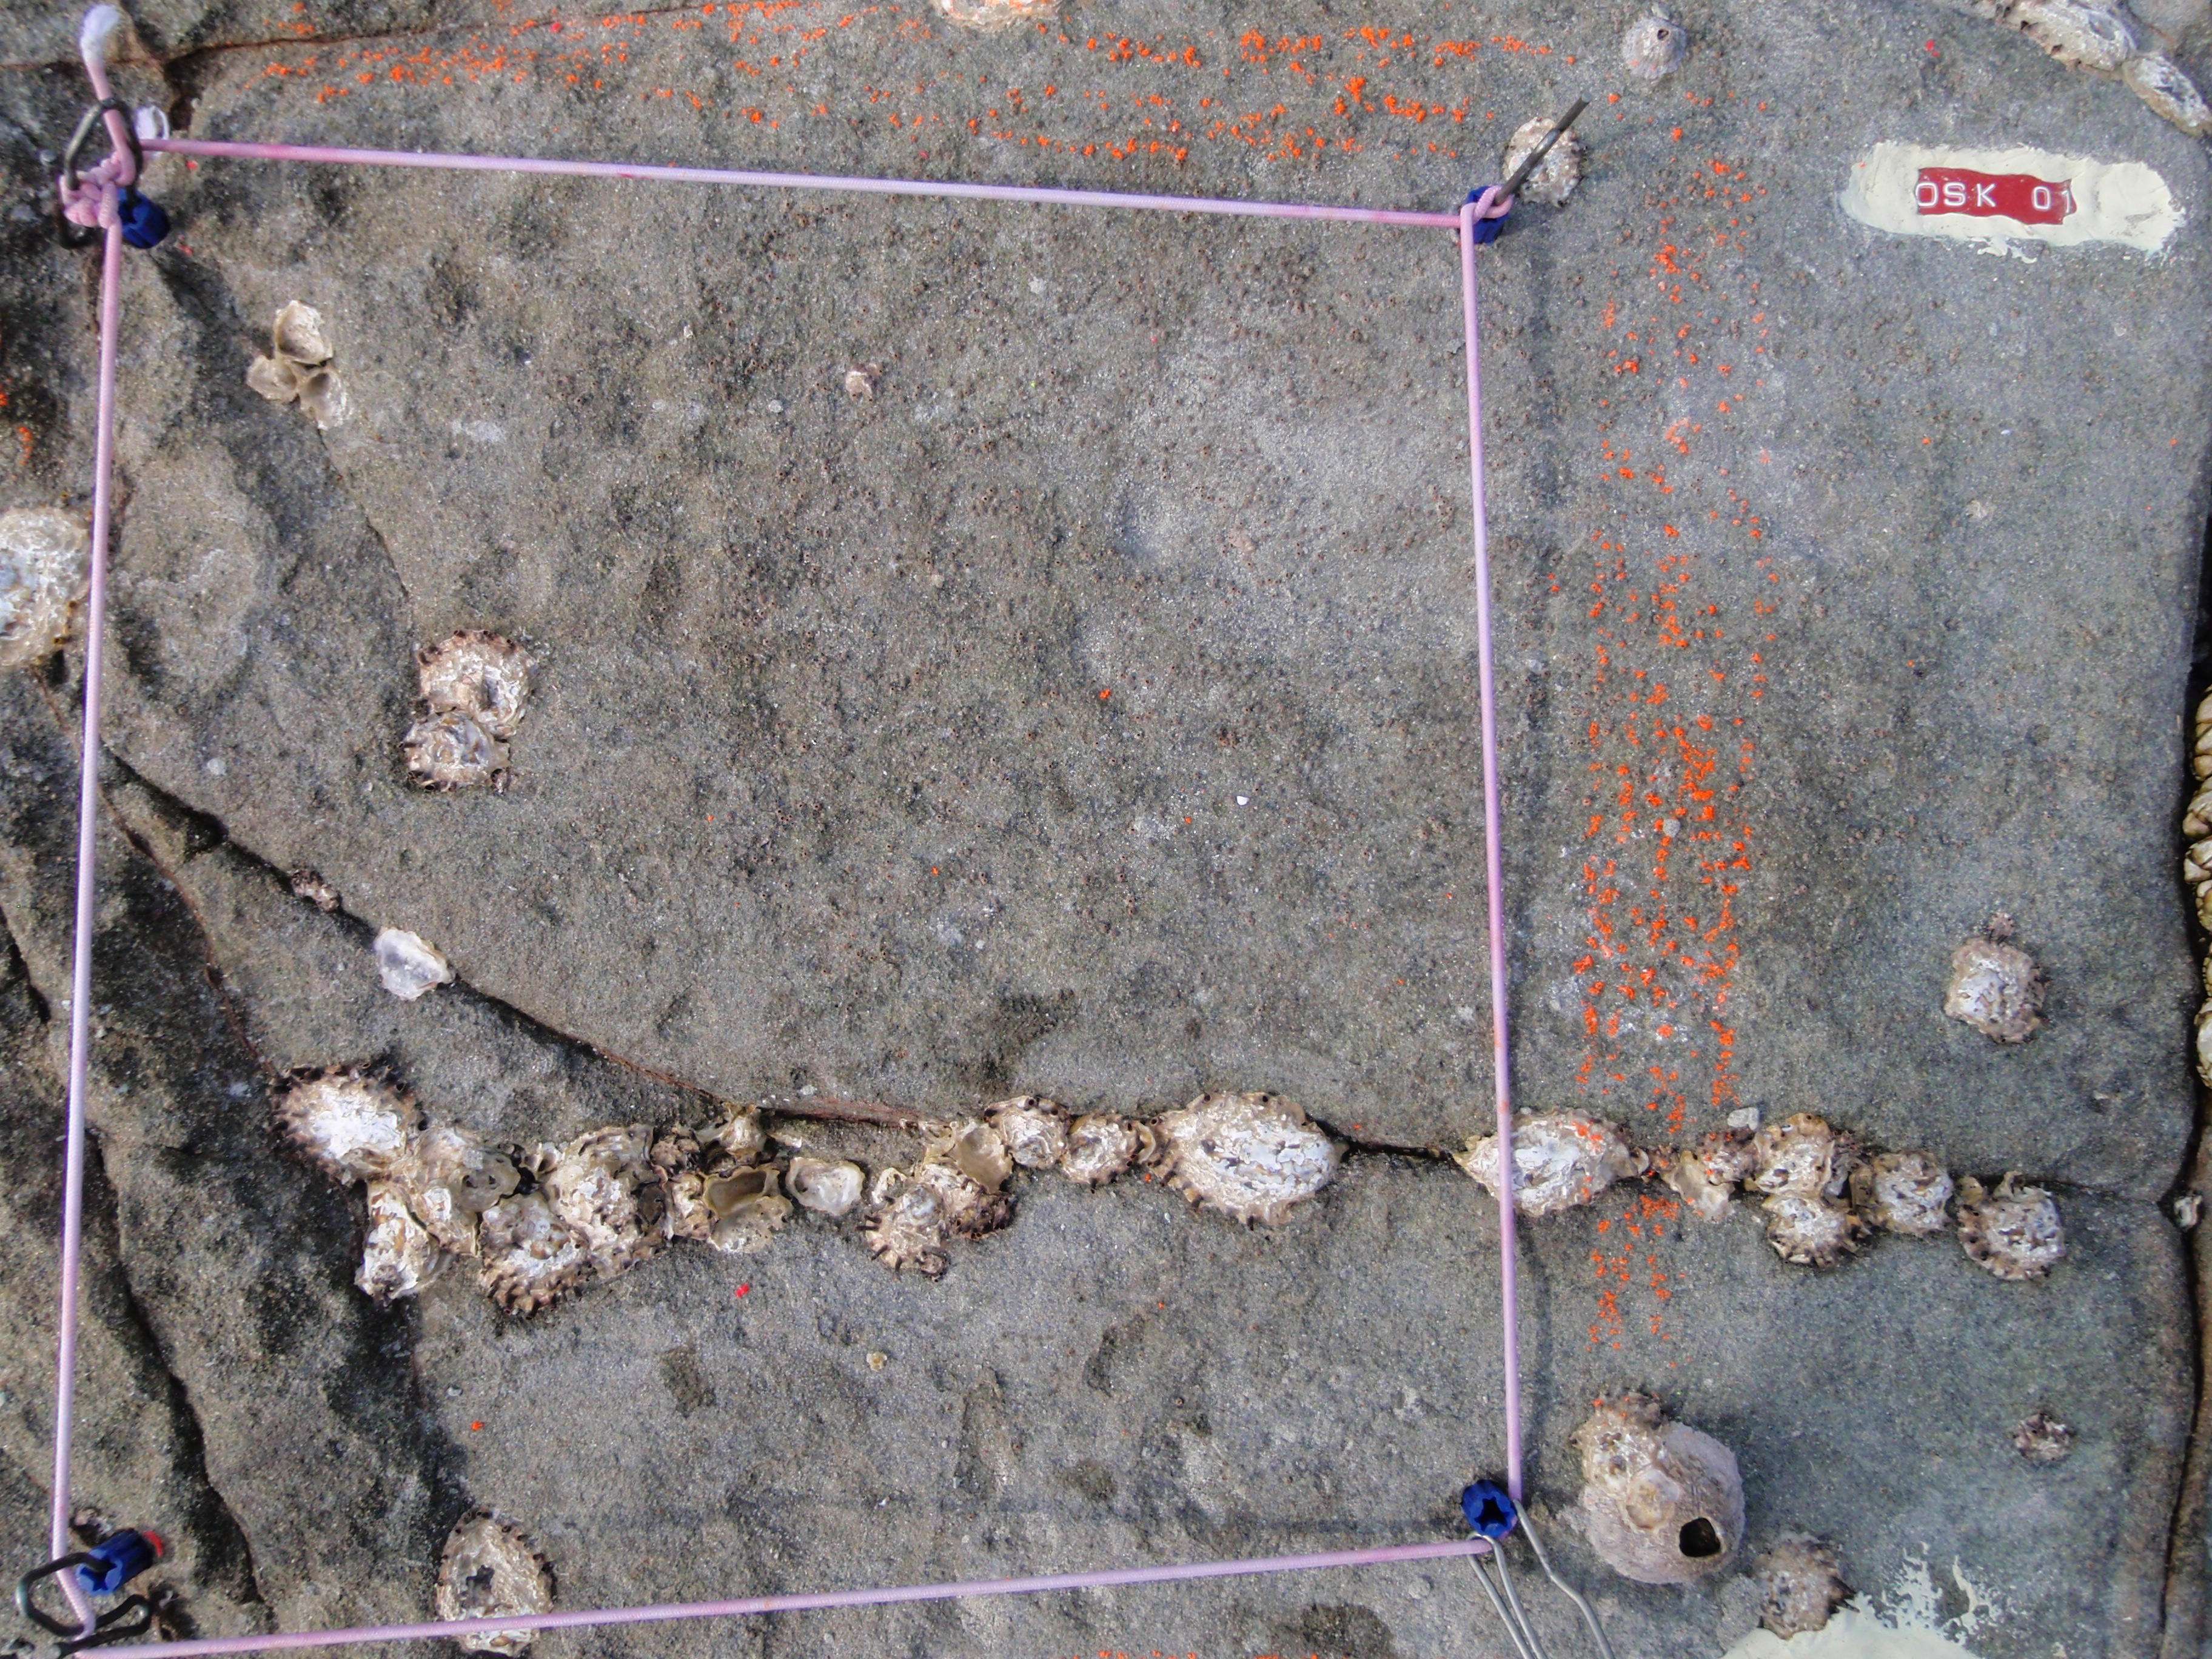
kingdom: Animalia
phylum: Arthropoda
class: Maxillopoda
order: Sessilia
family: Chthamalidae
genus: Chthamalus
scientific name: Chthamalus challengeri
